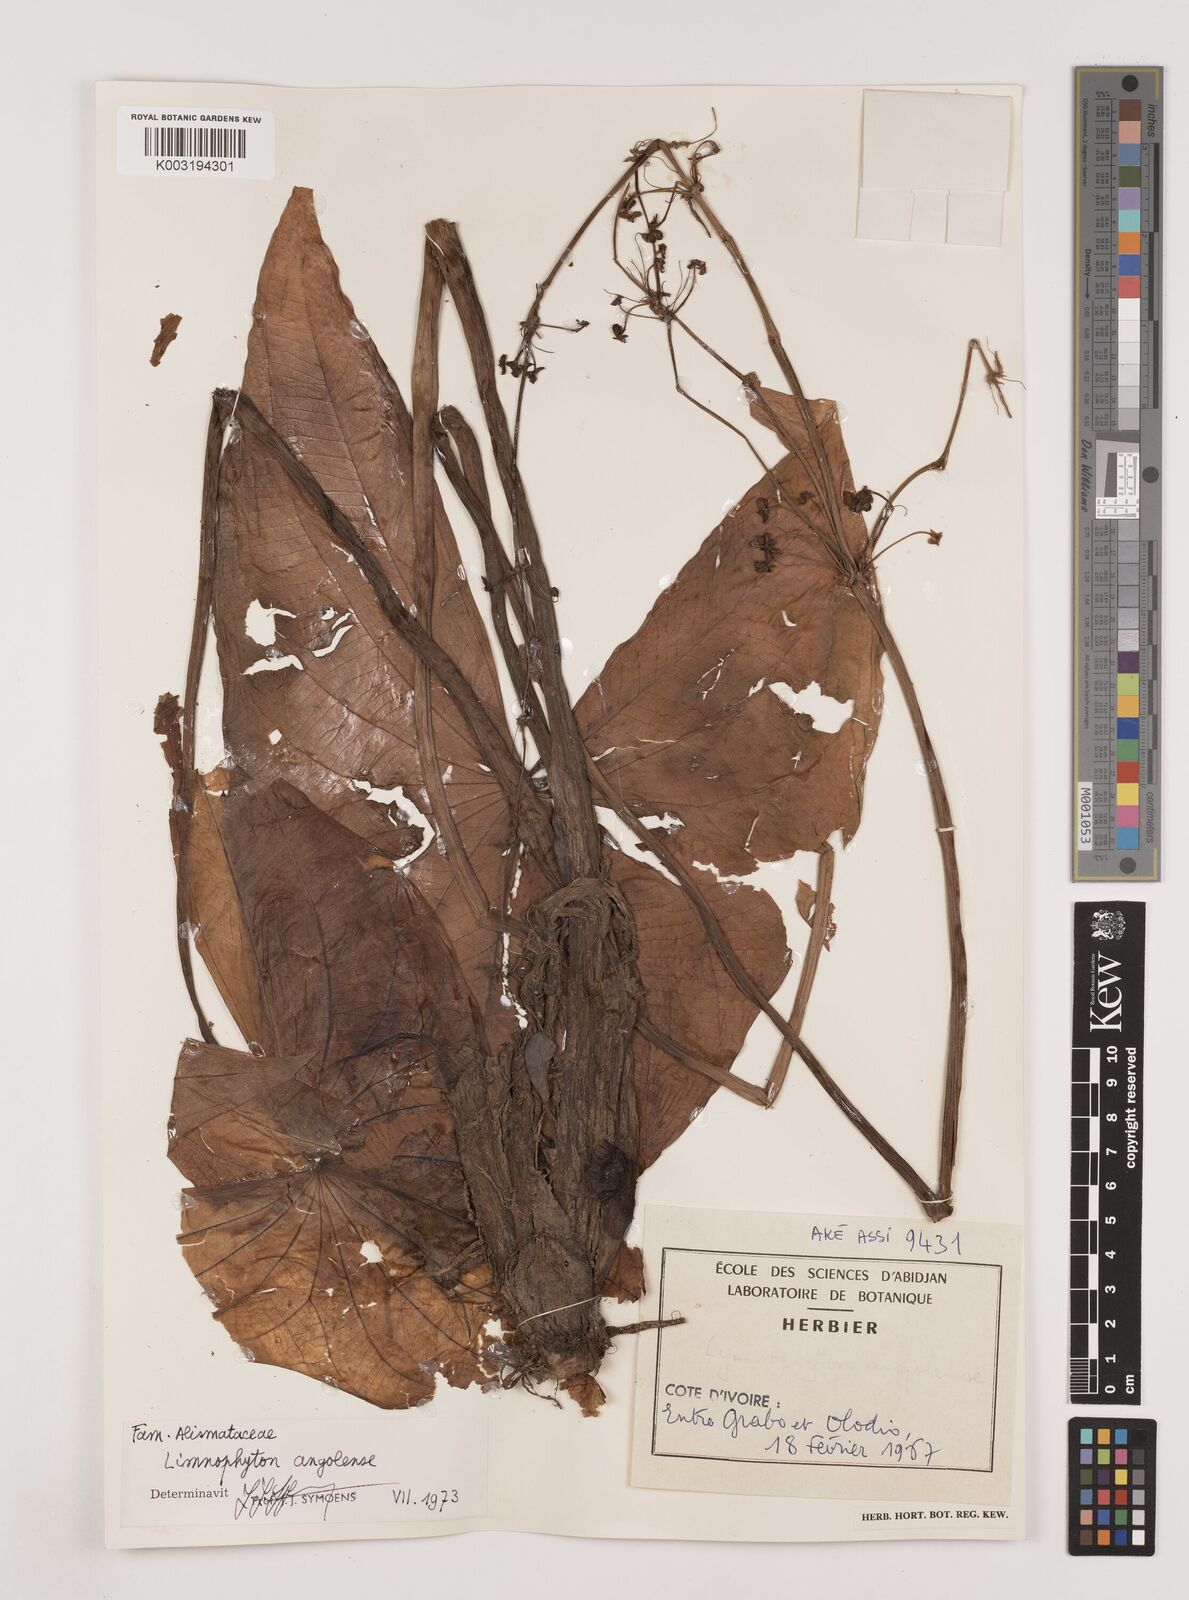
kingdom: Plantae
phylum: Tracheophyta
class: Liliopsida
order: Alismatales
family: Alismataceae
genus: Limnophyton
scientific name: Limnophyton angolense
